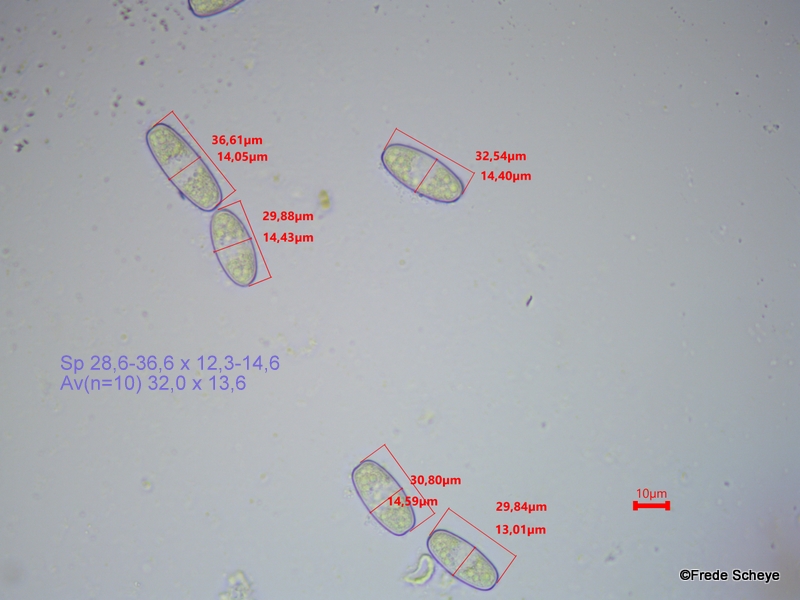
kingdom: Fungi
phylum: Ascomycota
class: Pezizomycetes
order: Pezizales
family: Sarcoscyphaceae
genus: Sarcoscypha
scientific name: Sarcoscypha austriaca
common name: krølhåret pragtbæger
